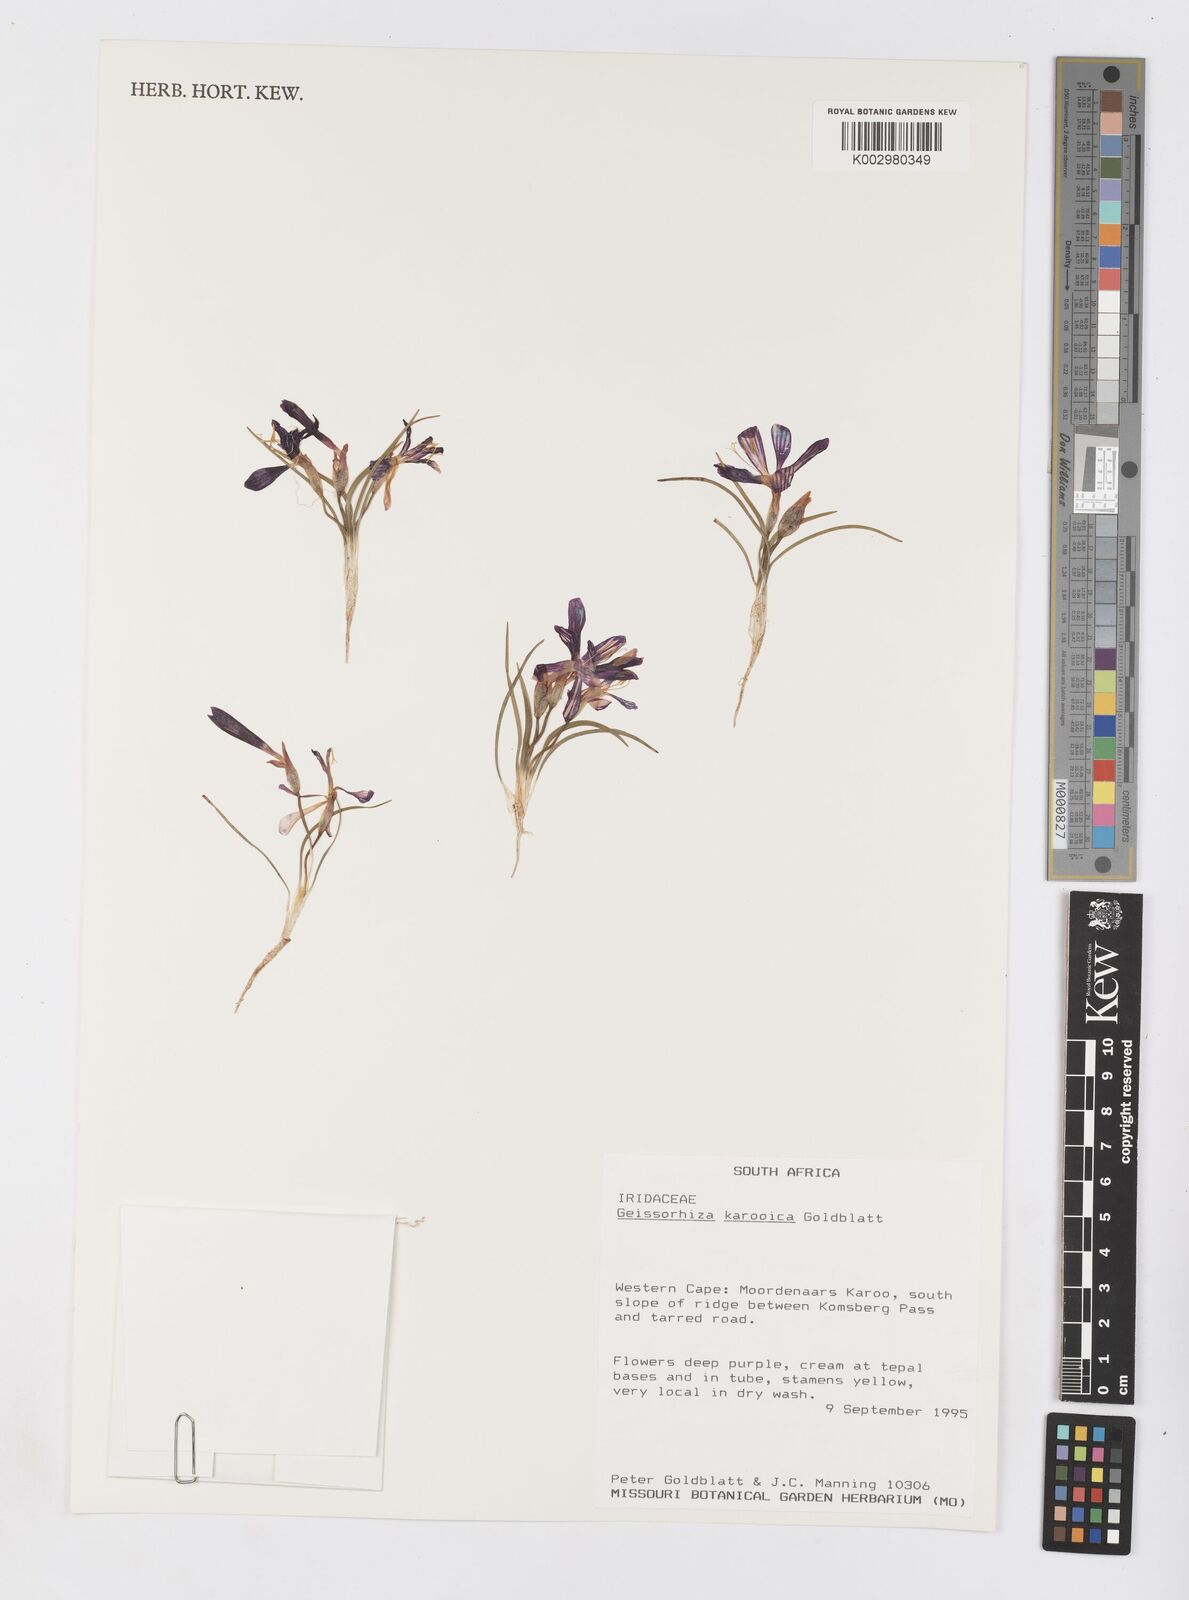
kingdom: Plantae
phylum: Tracheophyta
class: Liliopsida
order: Asparagales
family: Iridaceae
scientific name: Iridaceae
